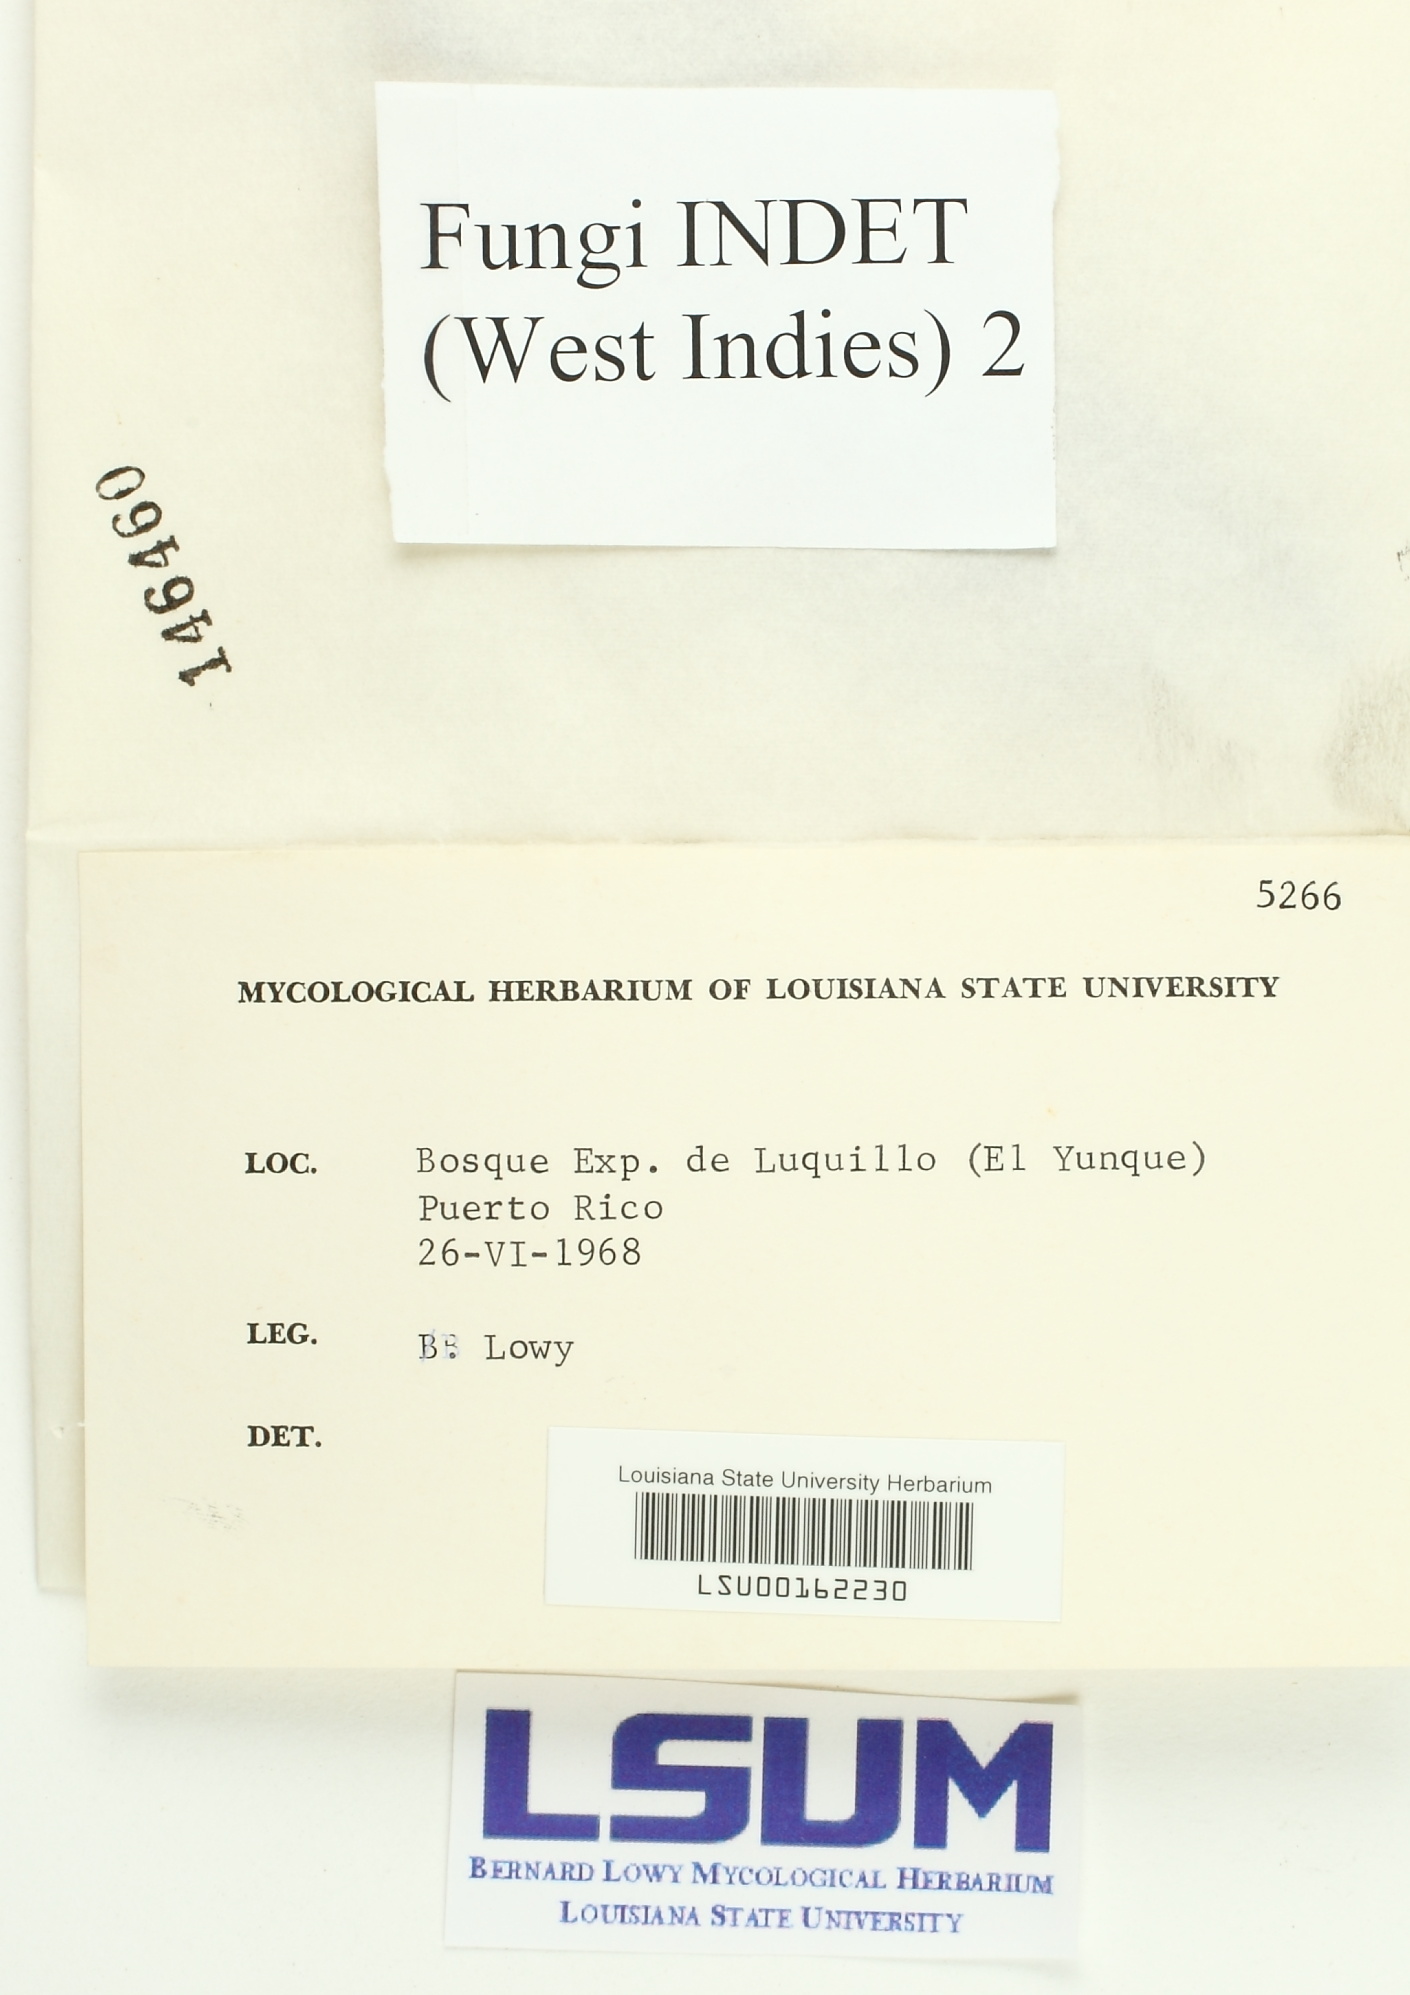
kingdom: Fungi
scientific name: Fungi
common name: Fungi
